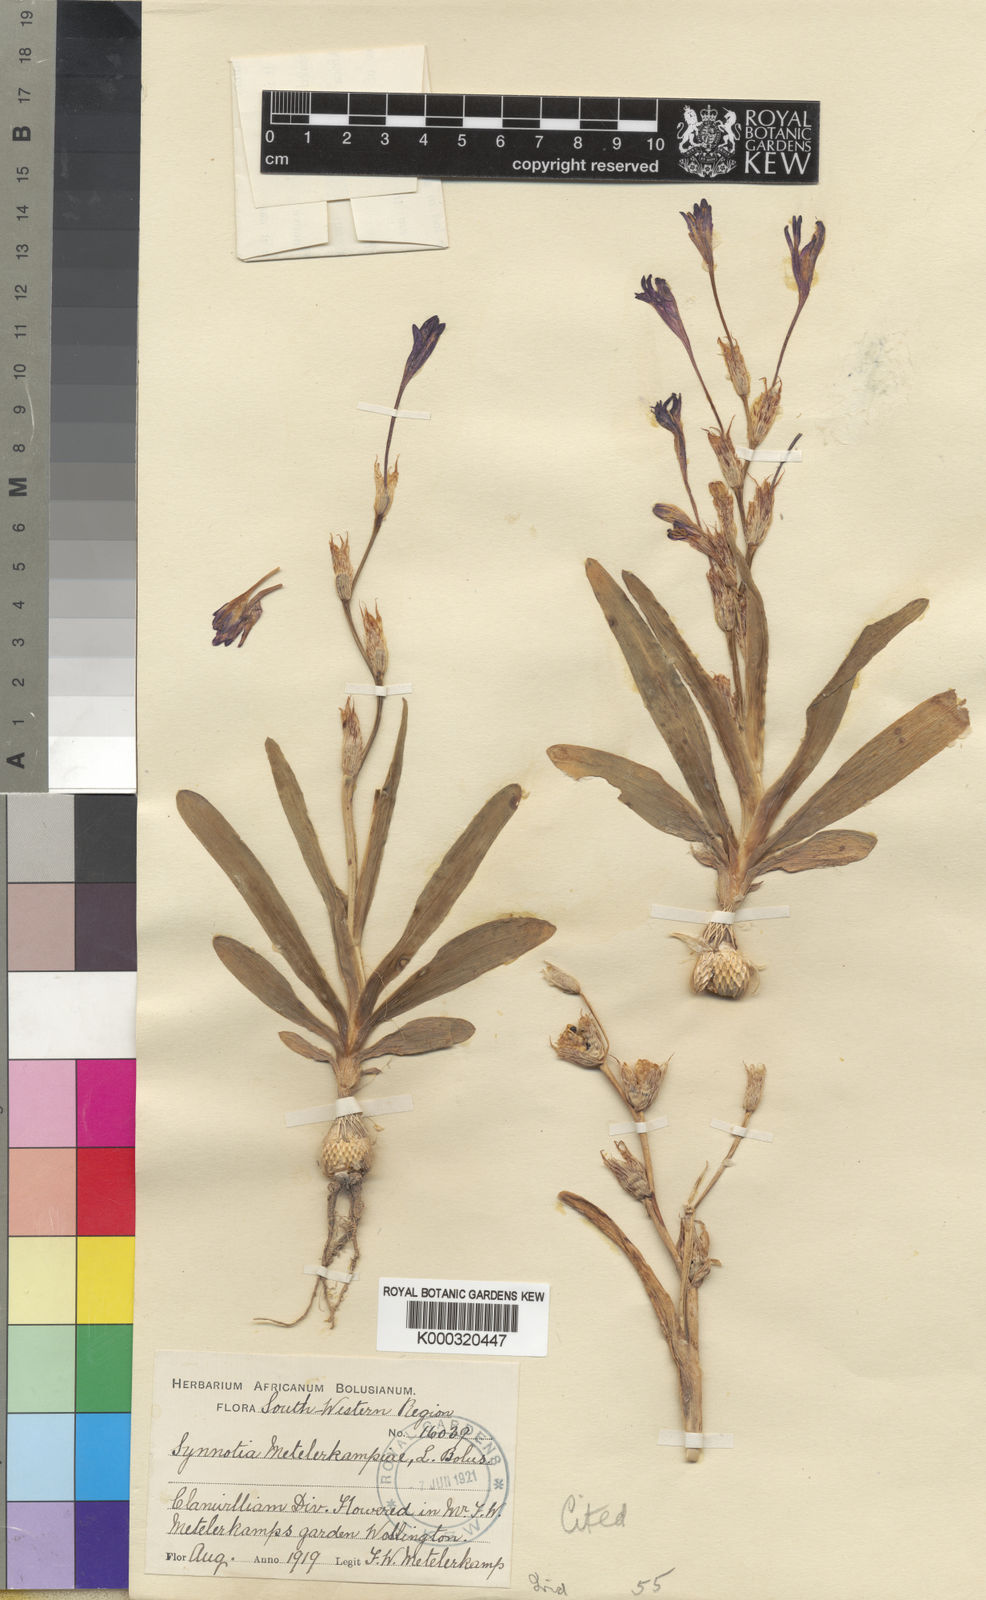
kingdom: Plantae
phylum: Tracheophyta
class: Liliopsida
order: Asparagales
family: Iridaceae
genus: Sparaxis
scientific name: Sparaxis metelerkampiae
